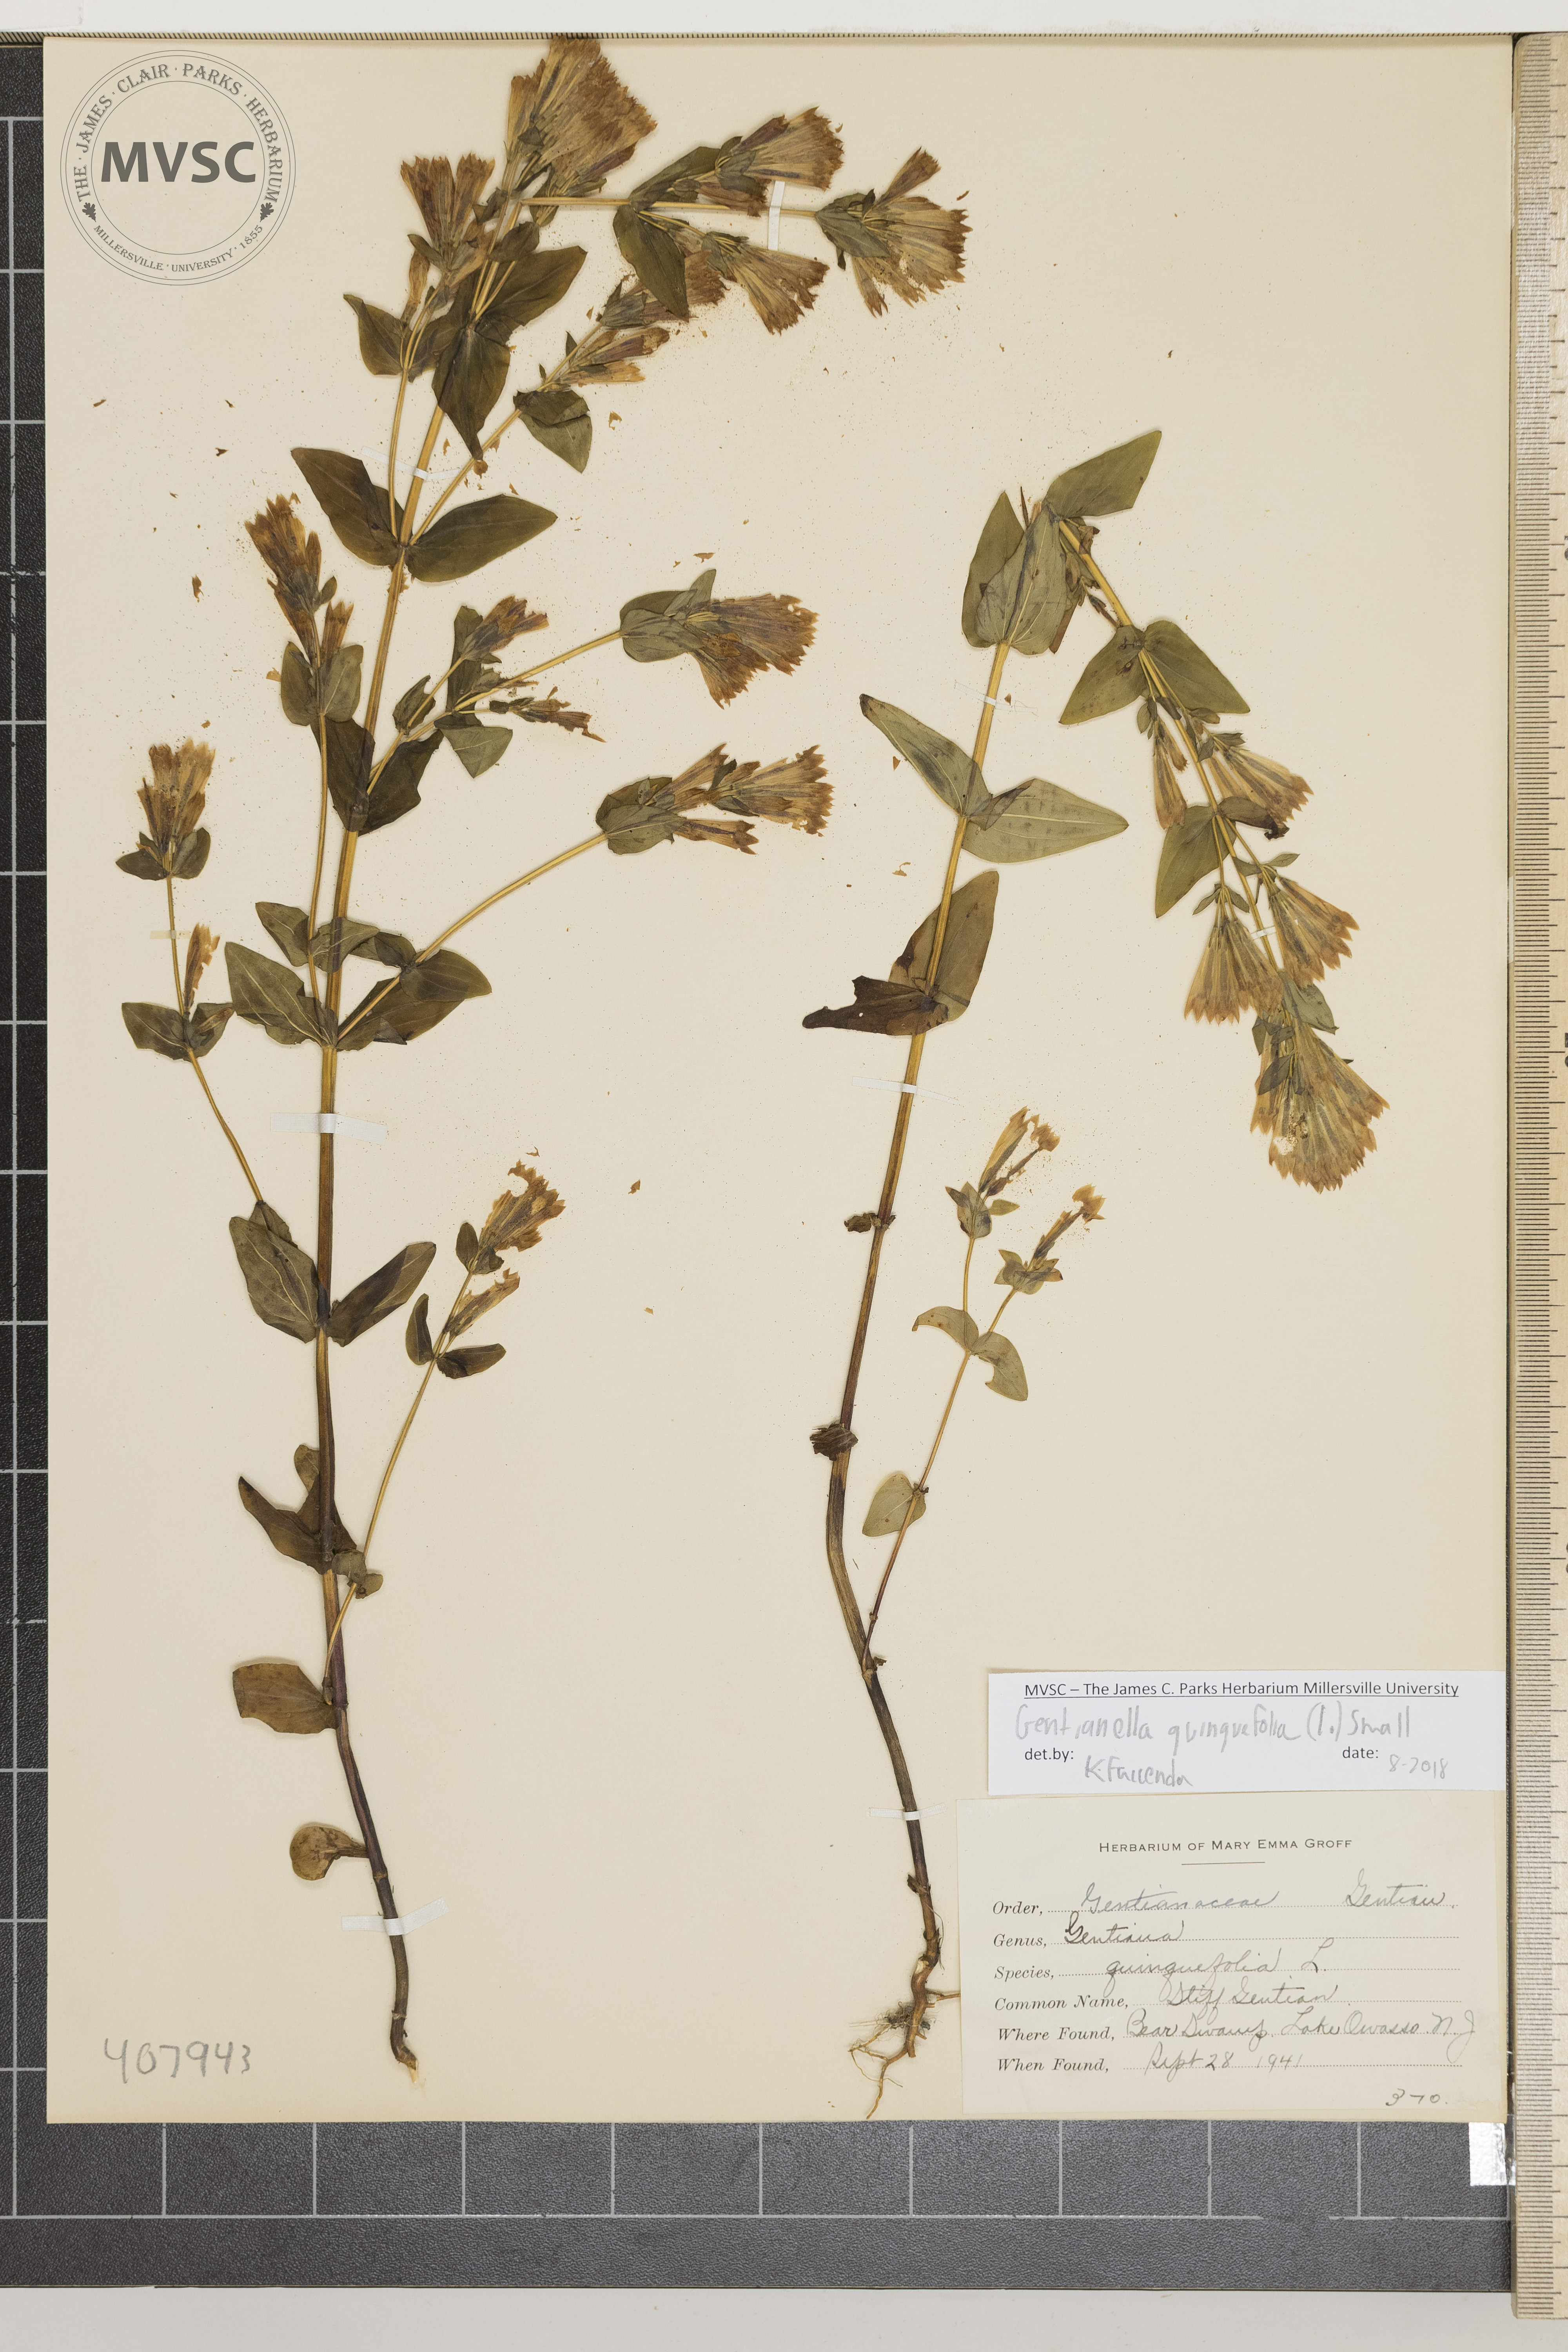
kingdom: Plantae
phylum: Tracheophyta
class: Magnoliopsida
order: Gentianales
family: Gentianaceae
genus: Gentianella
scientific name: Gentianella quinquefolia
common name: Stiff Gentian
